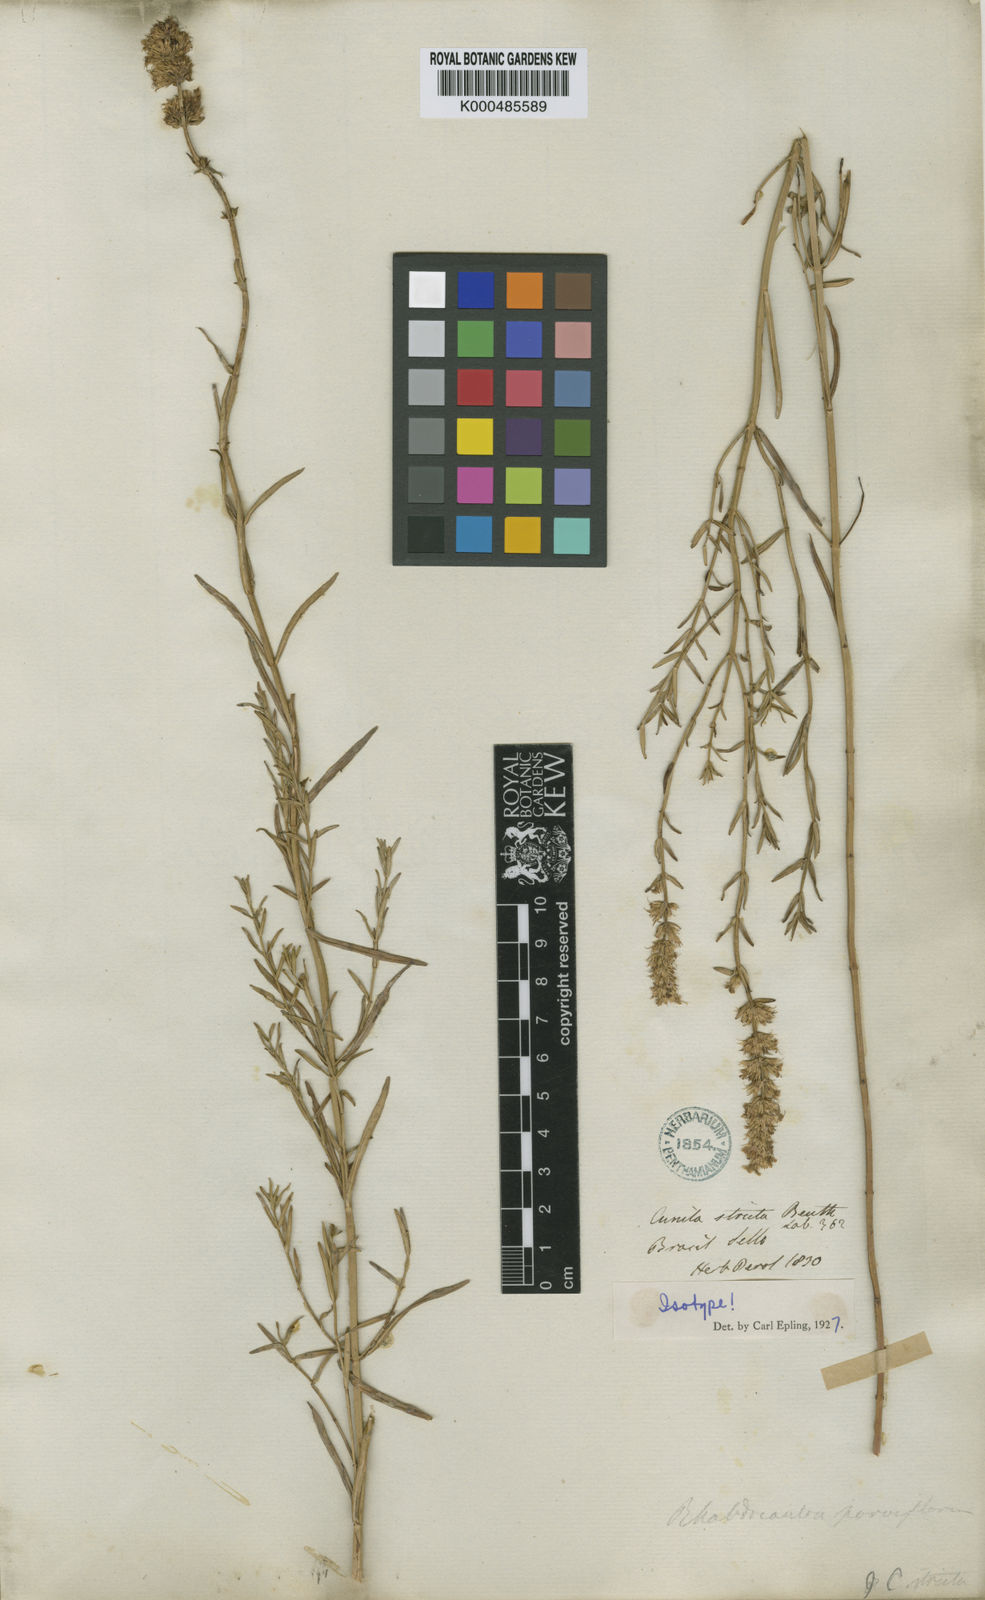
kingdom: Plantae
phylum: Tracheophyta
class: Magnoliopsida
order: Lamiales
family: Lamiaceae
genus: Rhabdocaulon
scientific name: Rhabdocaulon strictum
